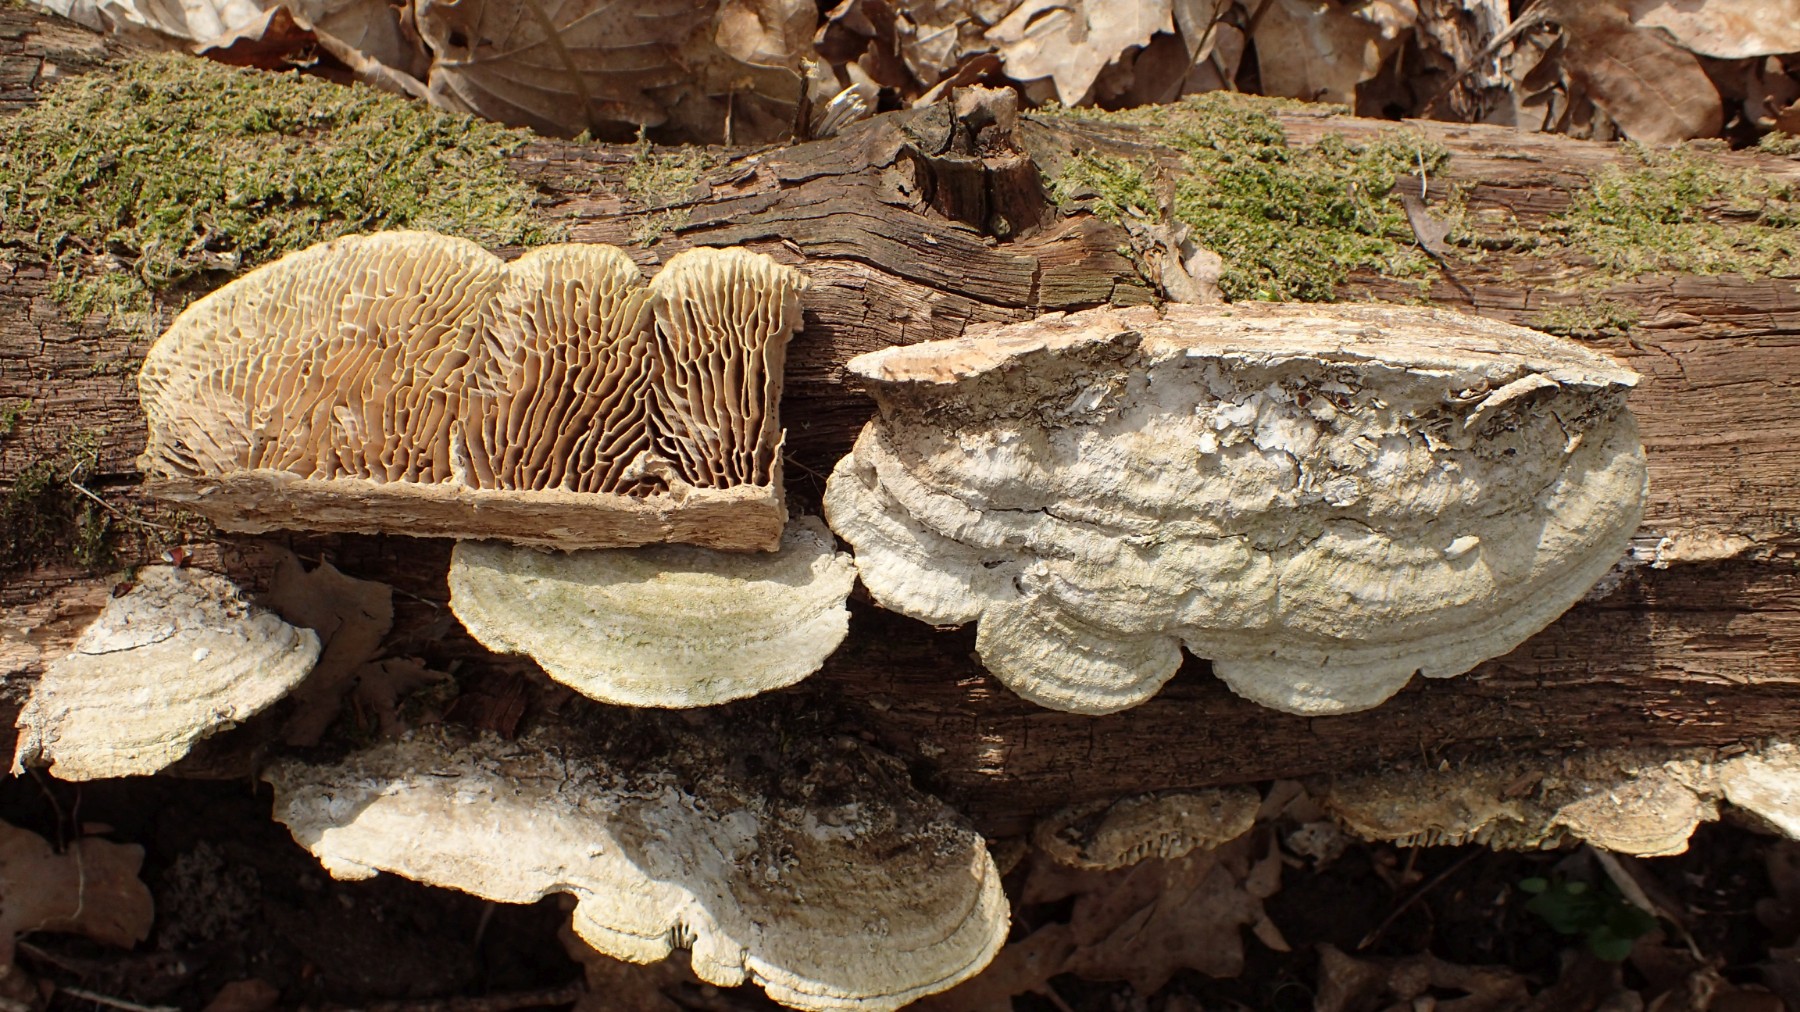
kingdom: Fungi
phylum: Basidiomycota
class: Agaricomycetes
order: Polyporales
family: Fomitopsidaceae
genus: Daedalea
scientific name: Daedalea quercina
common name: ege-labyrintsvamp
